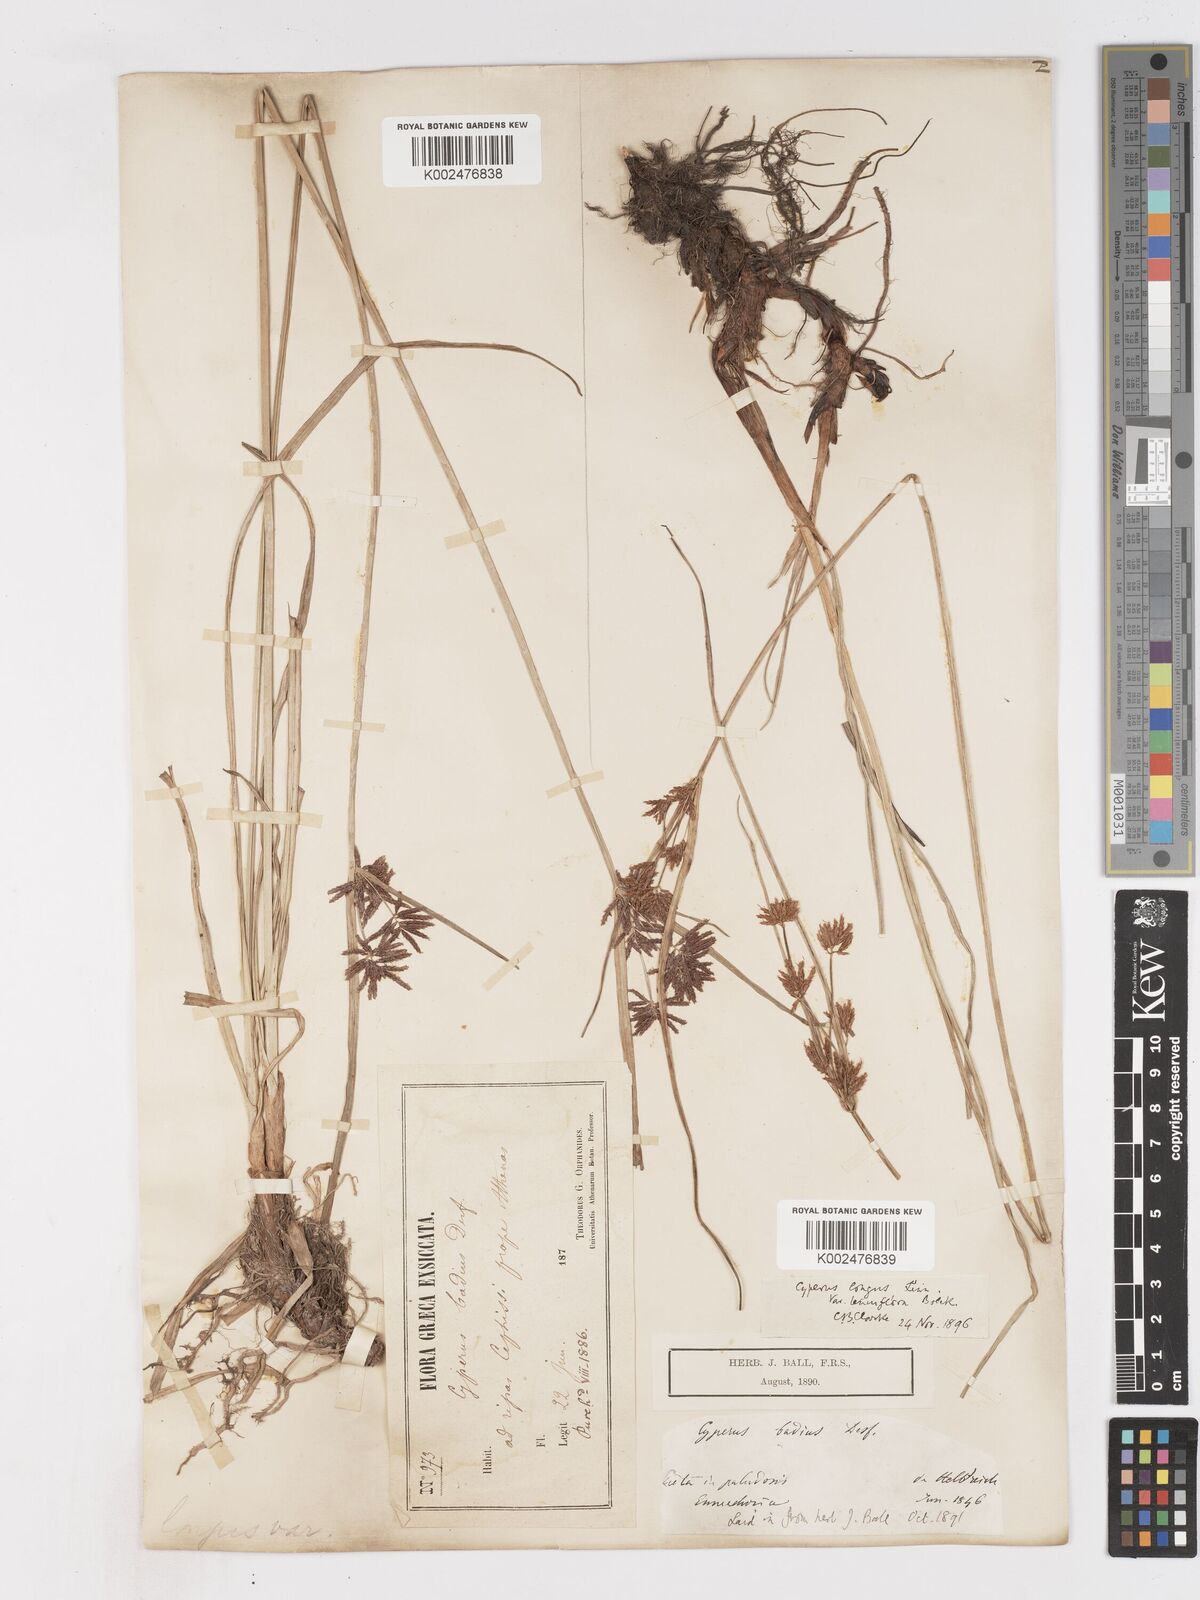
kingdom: Plantae
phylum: Tracheophyta
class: Liliopsida
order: Poales
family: Cyperaceae
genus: Cyperus
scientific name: Cyperus longus
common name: Galingale
